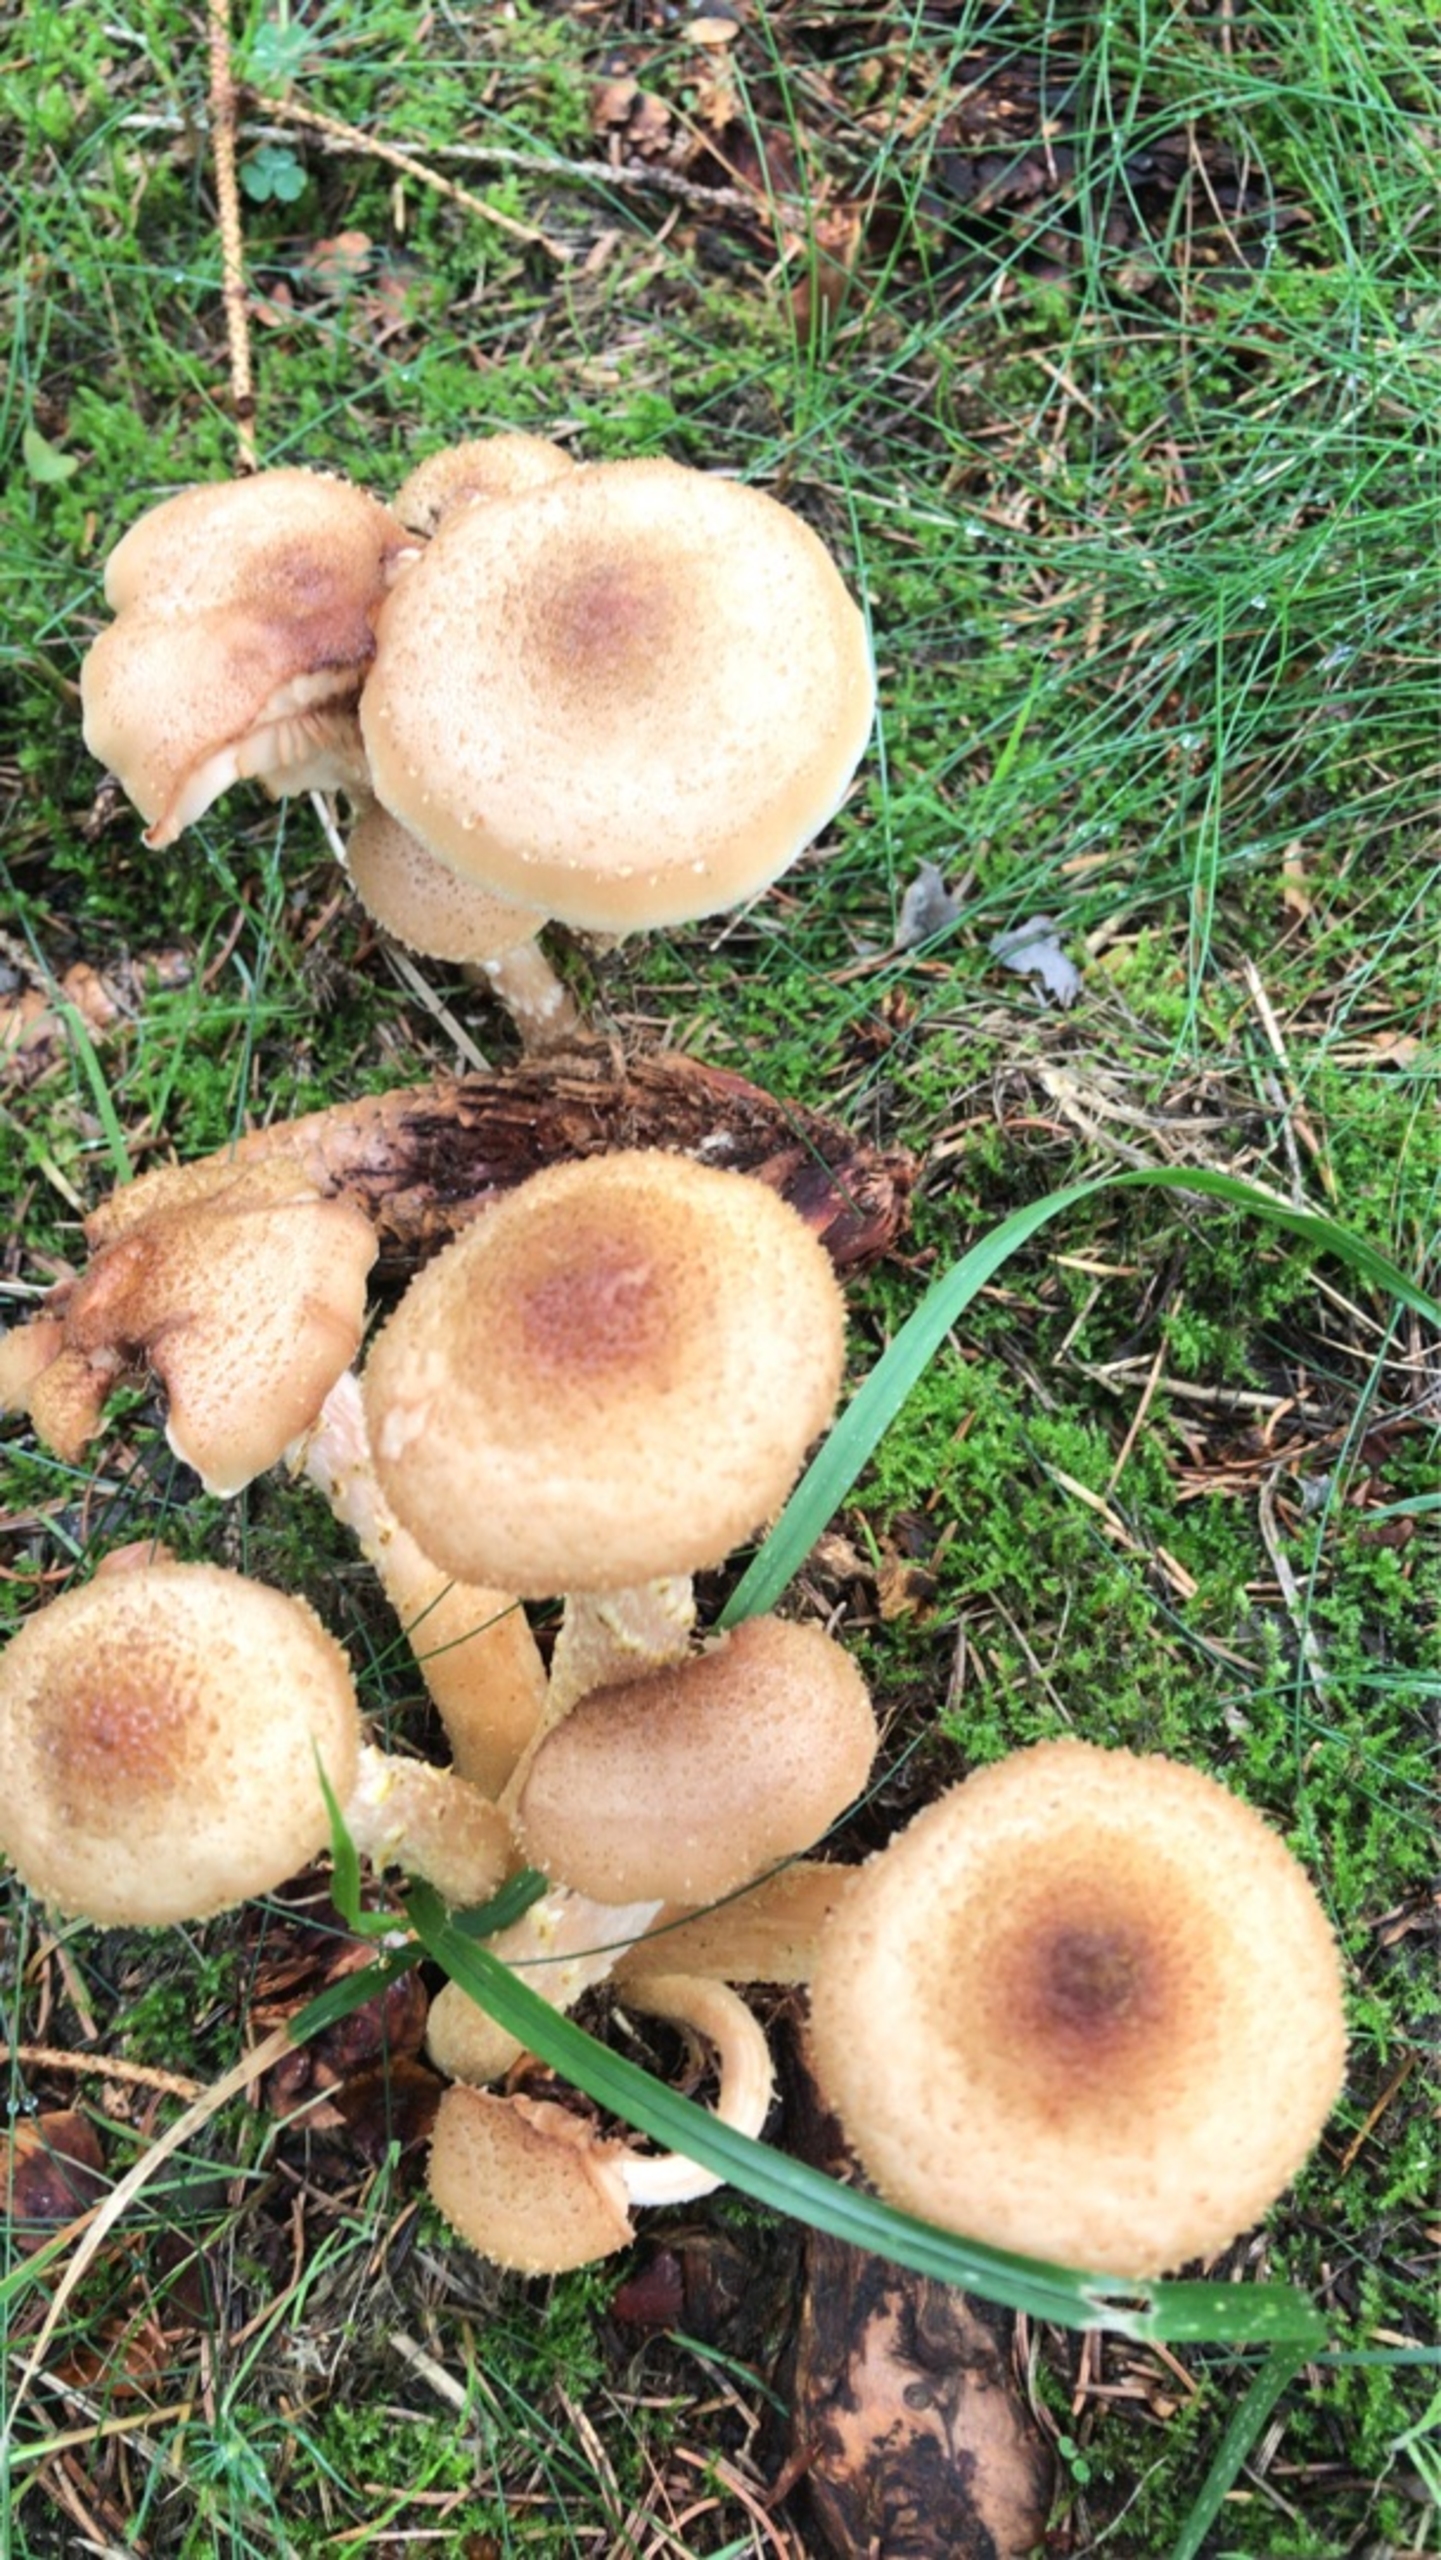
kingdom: Fungi
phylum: Basidiomycota
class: Agaricomycetes
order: Agaricales
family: Physalacriaceae
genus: Armillaria
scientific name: Armillaria ostoyae
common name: Mørk honningsvamp
